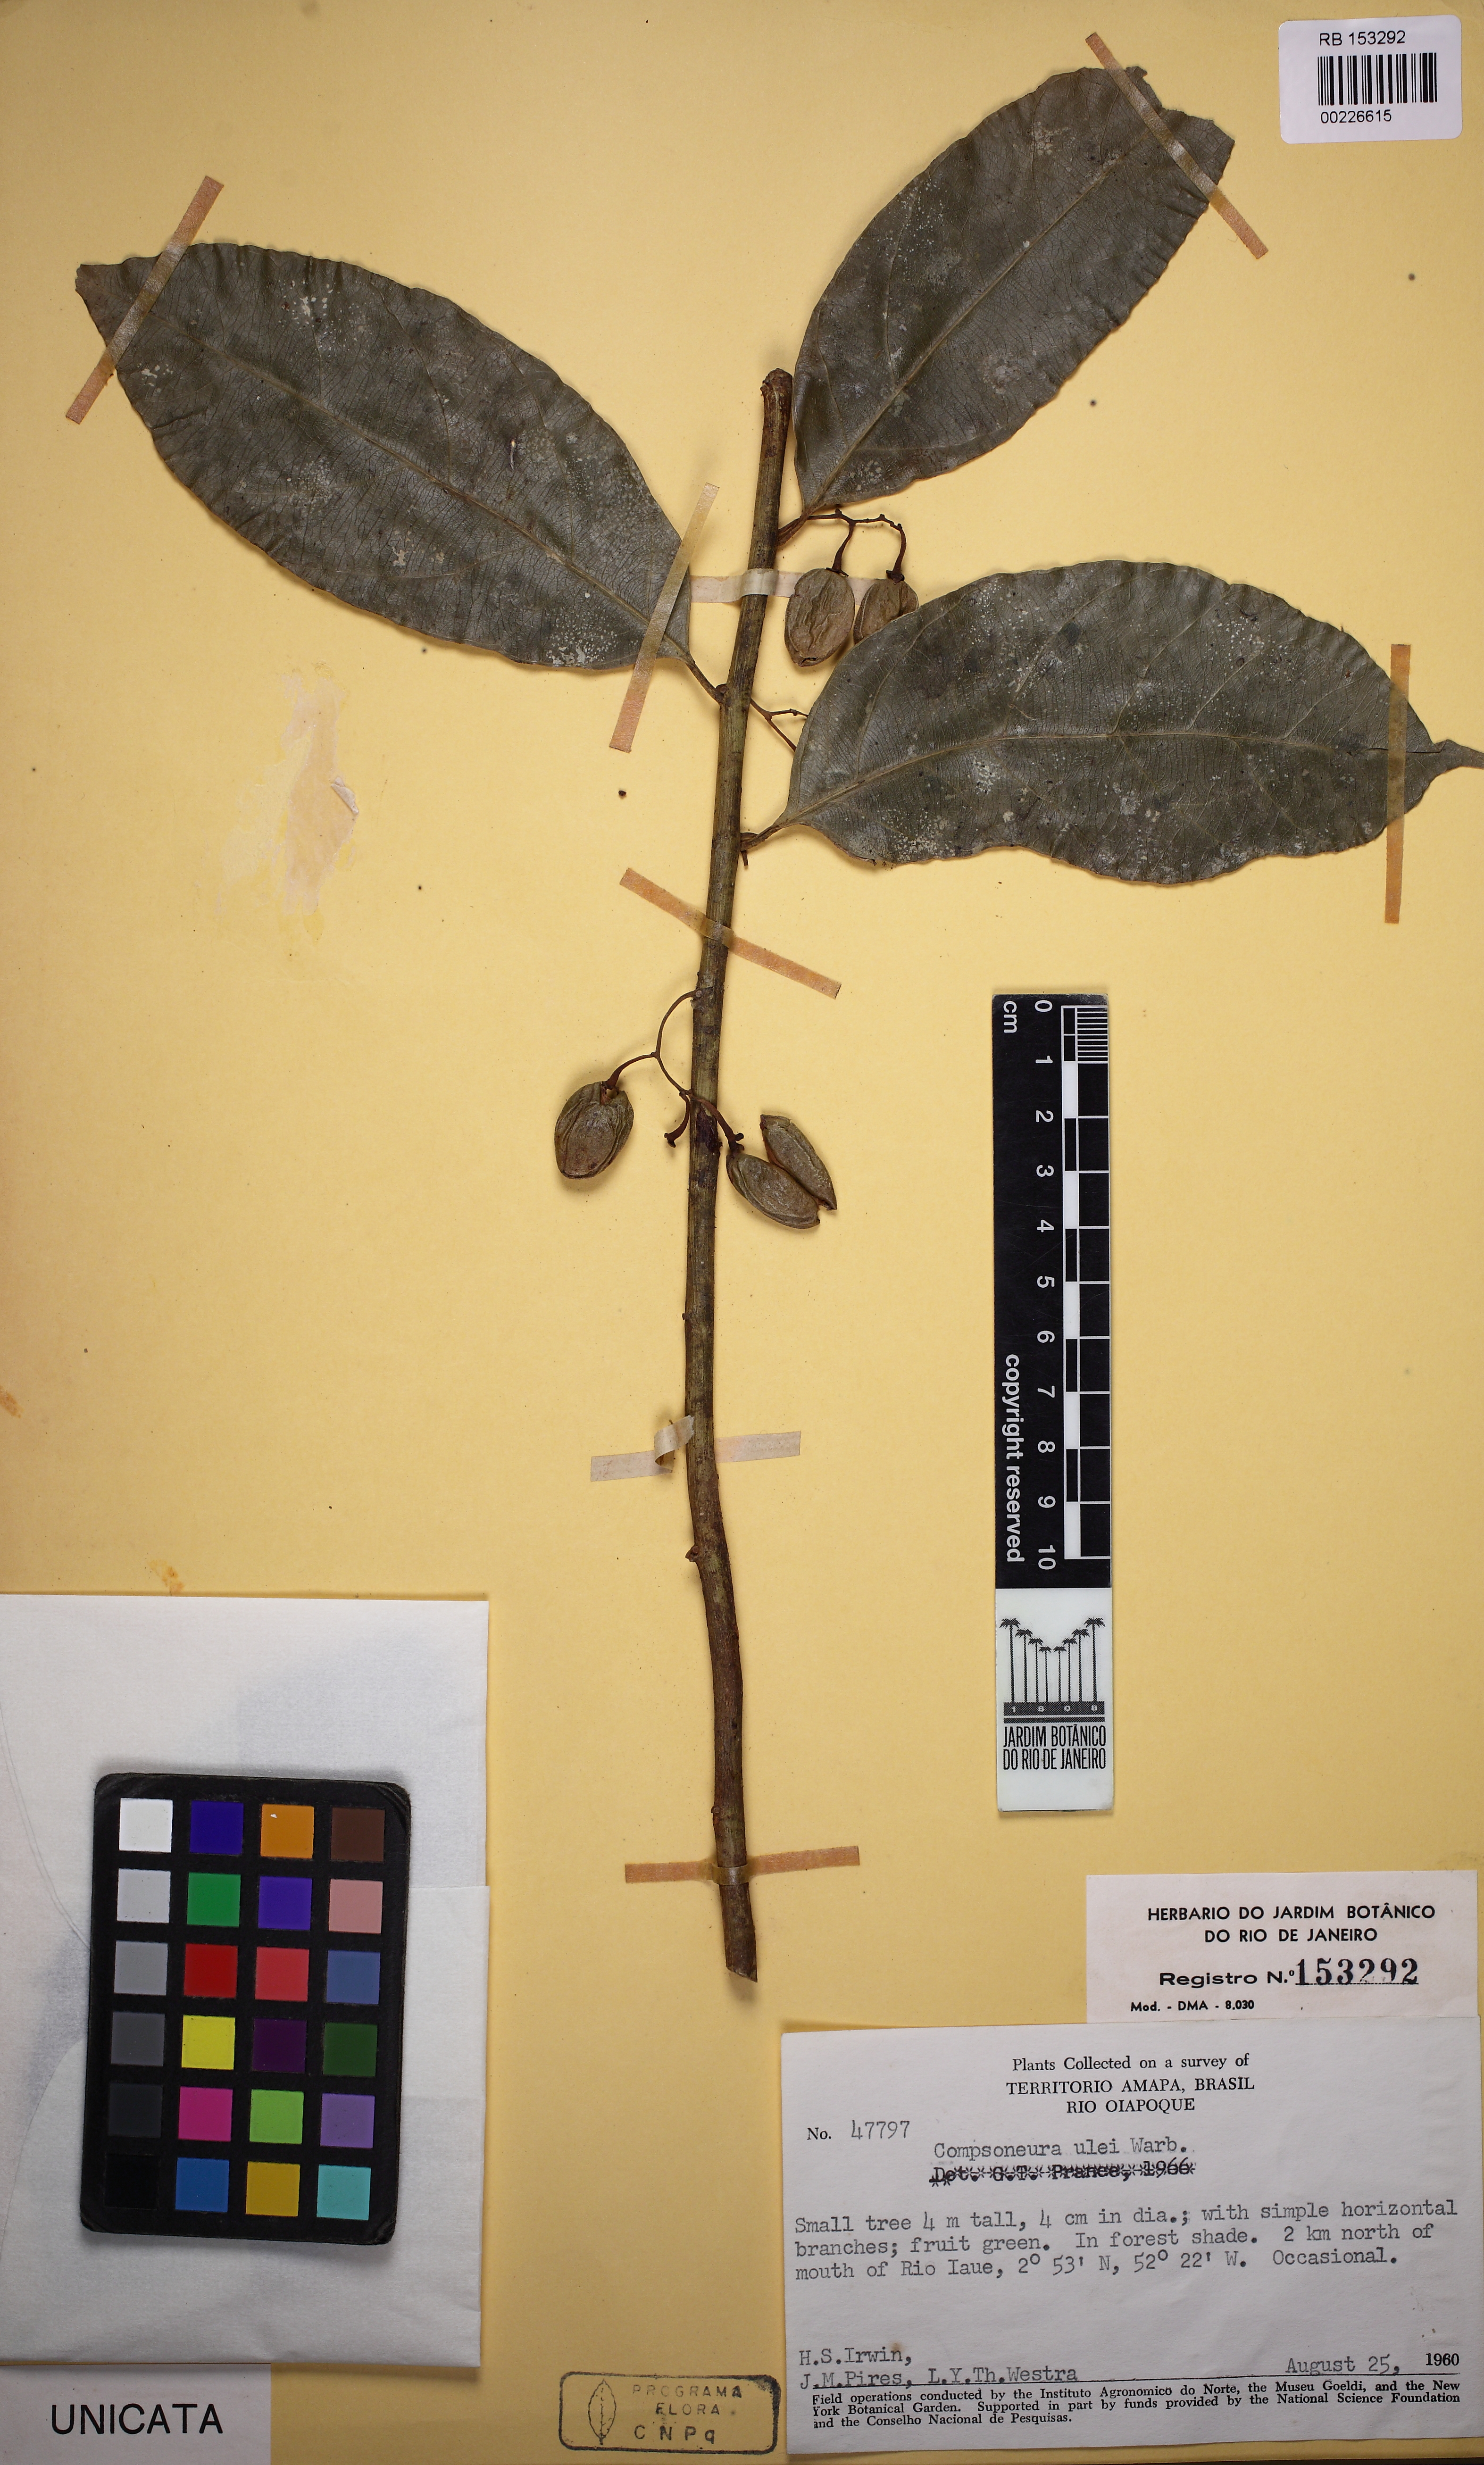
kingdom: Plantae
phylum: Tracheophyta
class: Magnoliopsida
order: Magnoliales
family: Myristicaceae
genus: Compsoneura
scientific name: Compsoneura ulei
